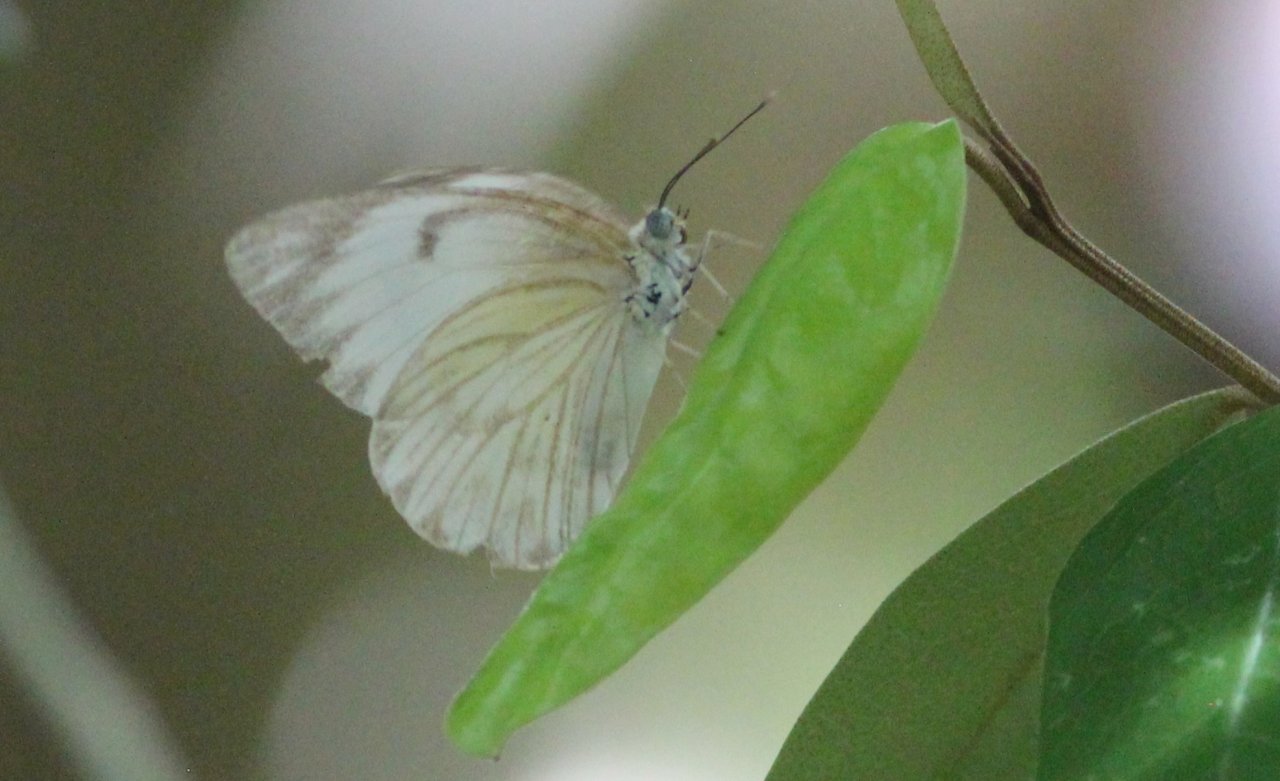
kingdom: Animalia
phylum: Arthropoda
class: Insecta
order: Lepidoptera
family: Pieridae
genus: Pontia
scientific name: Pontia protodice
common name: Checkered White
